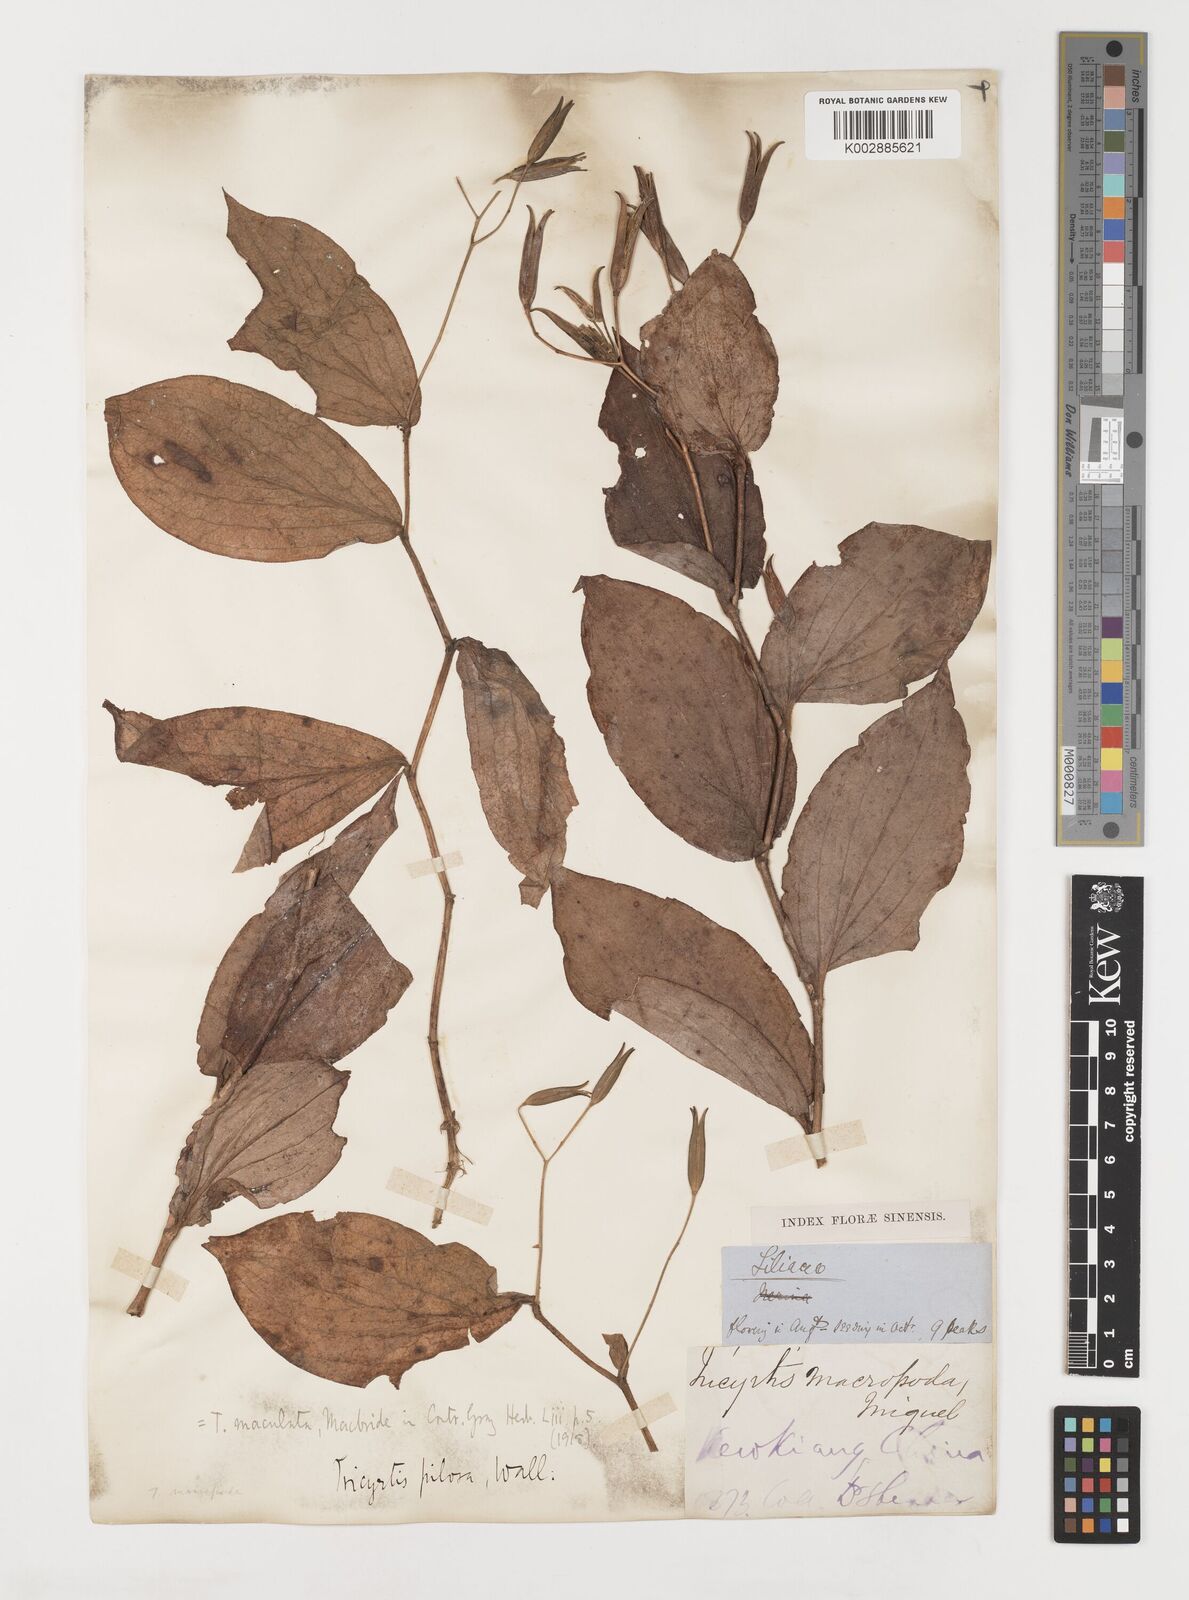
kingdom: Plantae
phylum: Tracheophyta
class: Liliopsida
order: Liliales
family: Liliaceae
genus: Tricyrtis
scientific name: Tricyrtis latifolia
